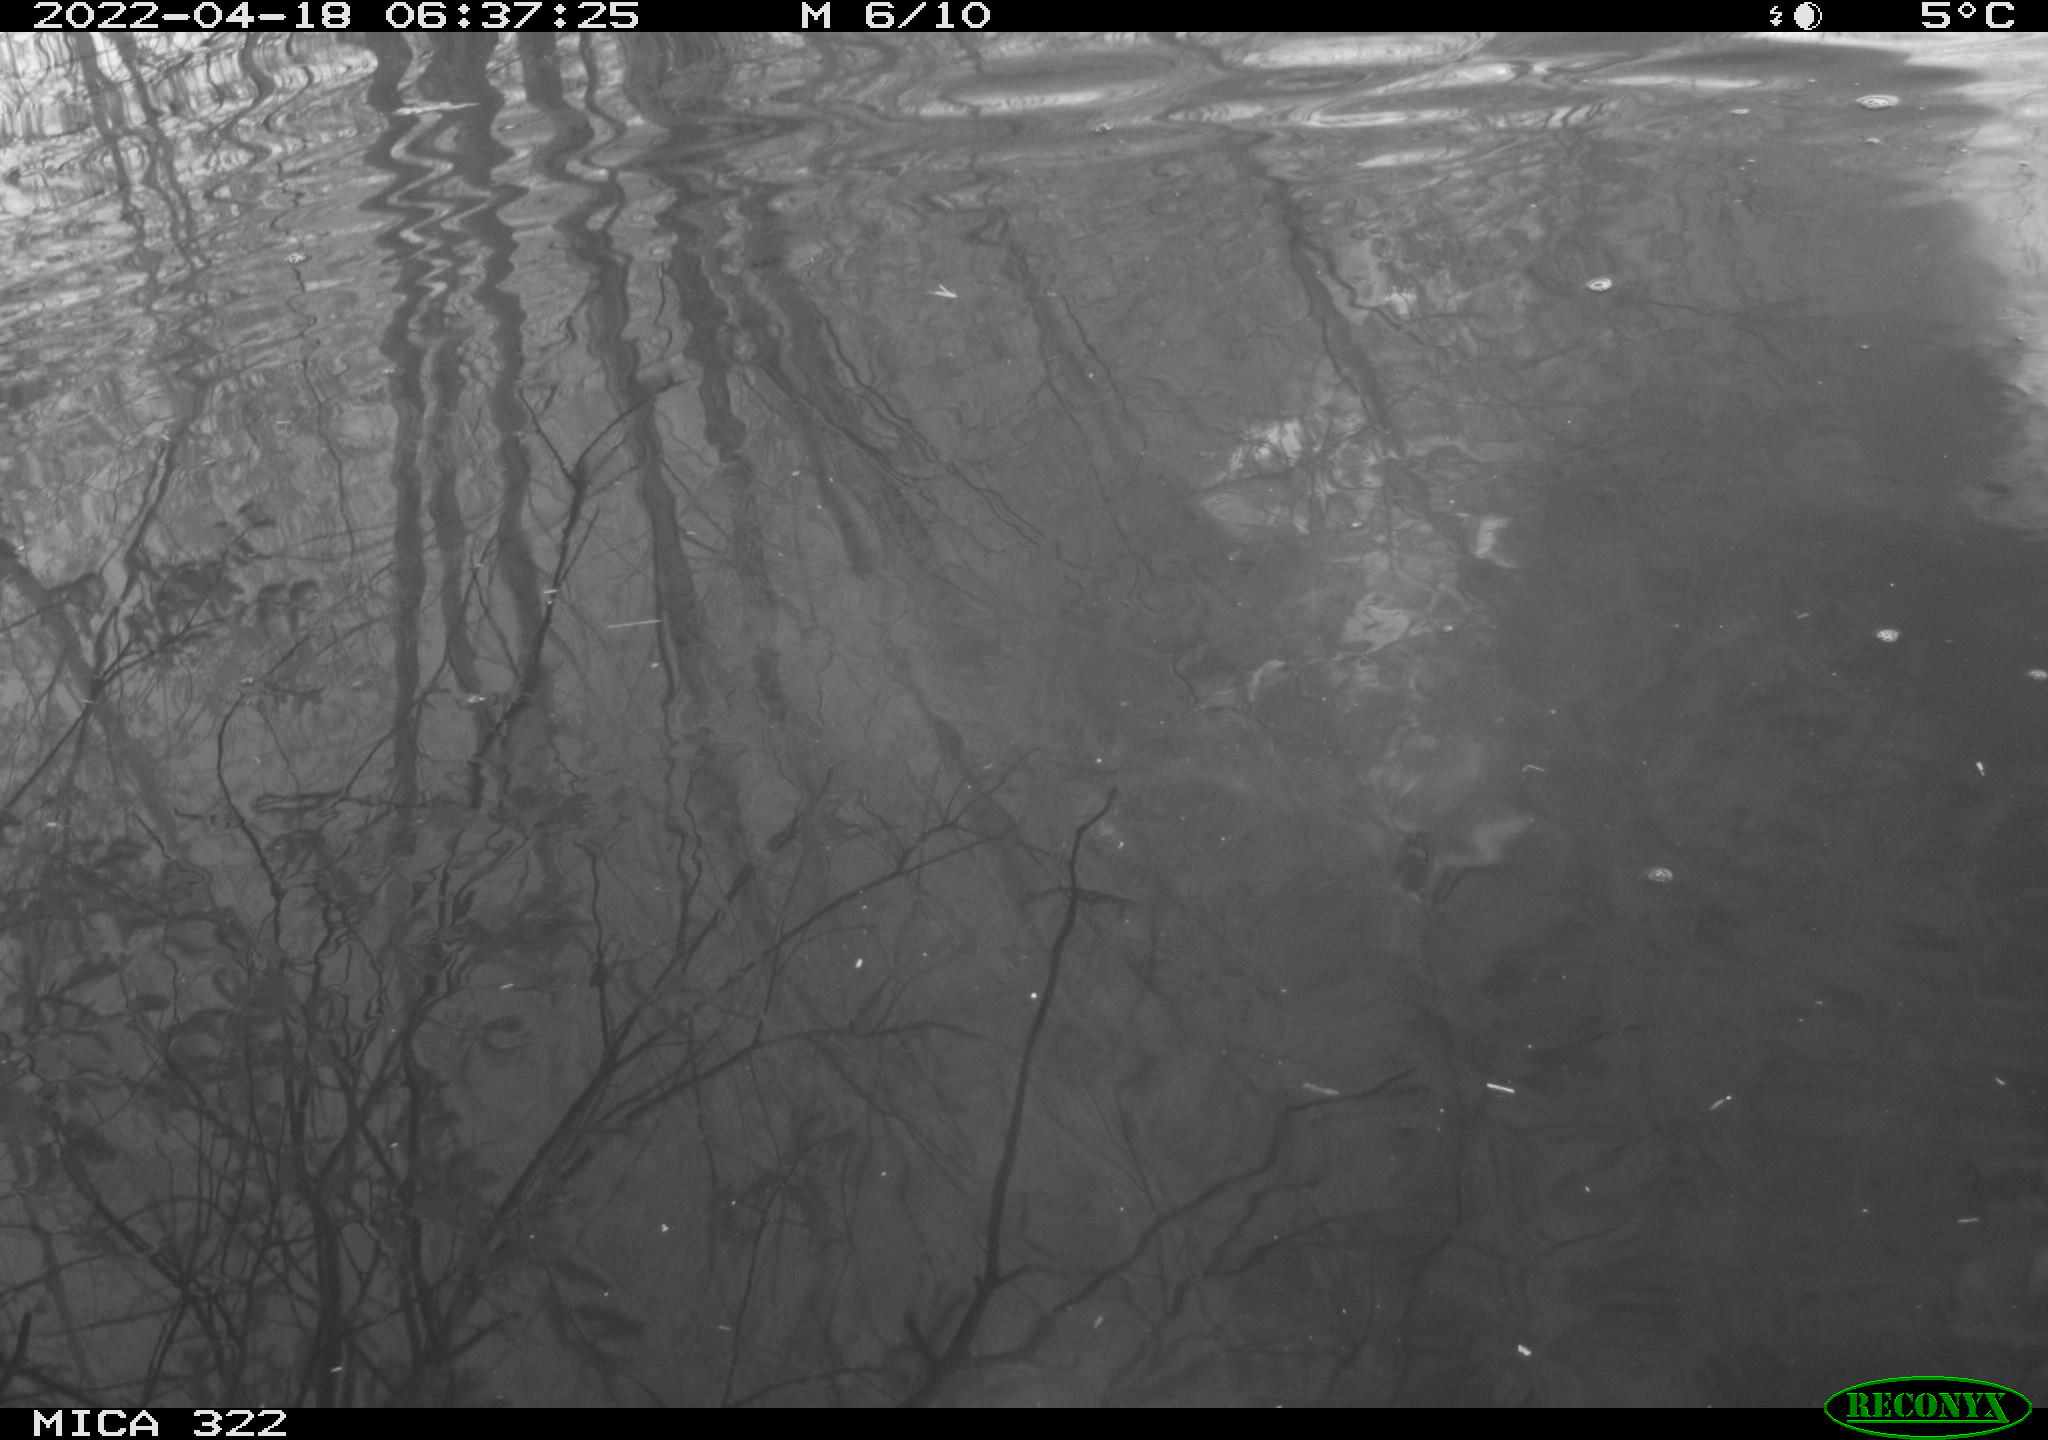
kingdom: Animalia
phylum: Chordata
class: Aves
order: Gruiformes
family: Rallidae
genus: Gallinula
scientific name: Gallinula chloropus
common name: Common moorhen
